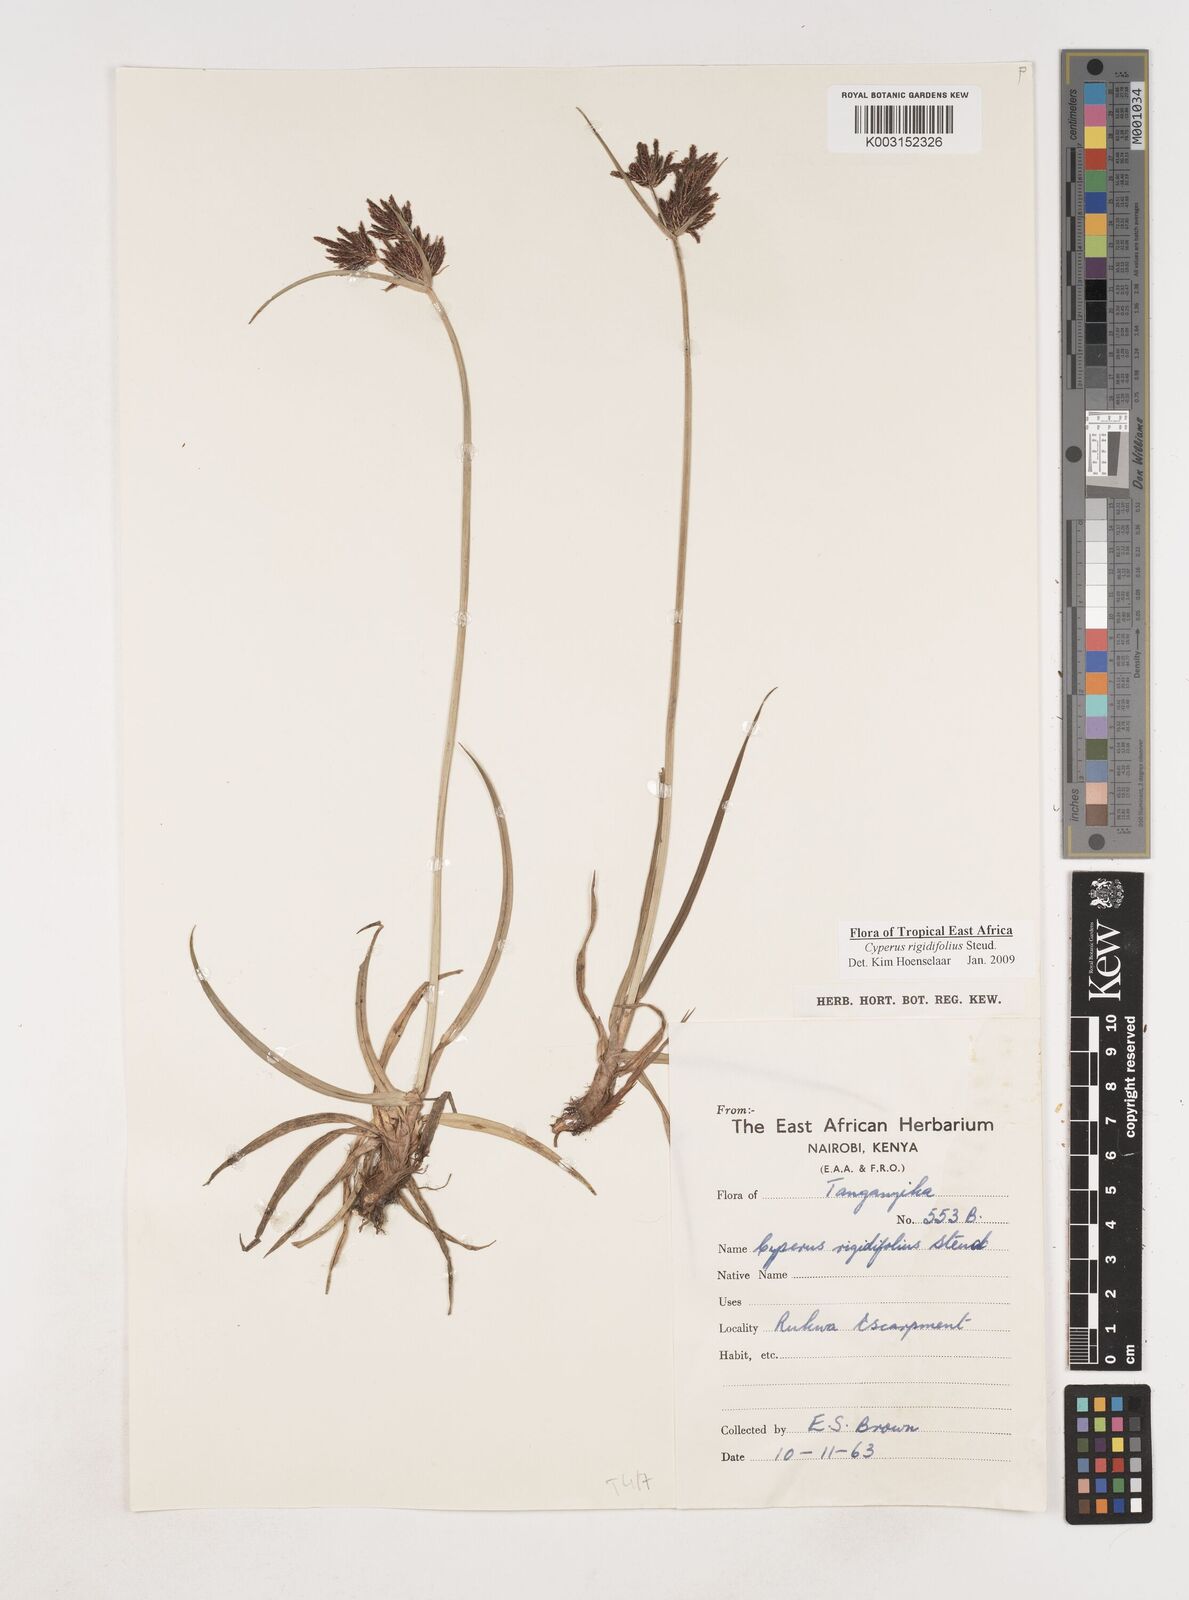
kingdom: Plantae
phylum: Tracheophyta
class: Liliopsida
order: Poales
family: Cyperaceae
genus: Cyperus
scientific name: Cyperus rigidifolius
